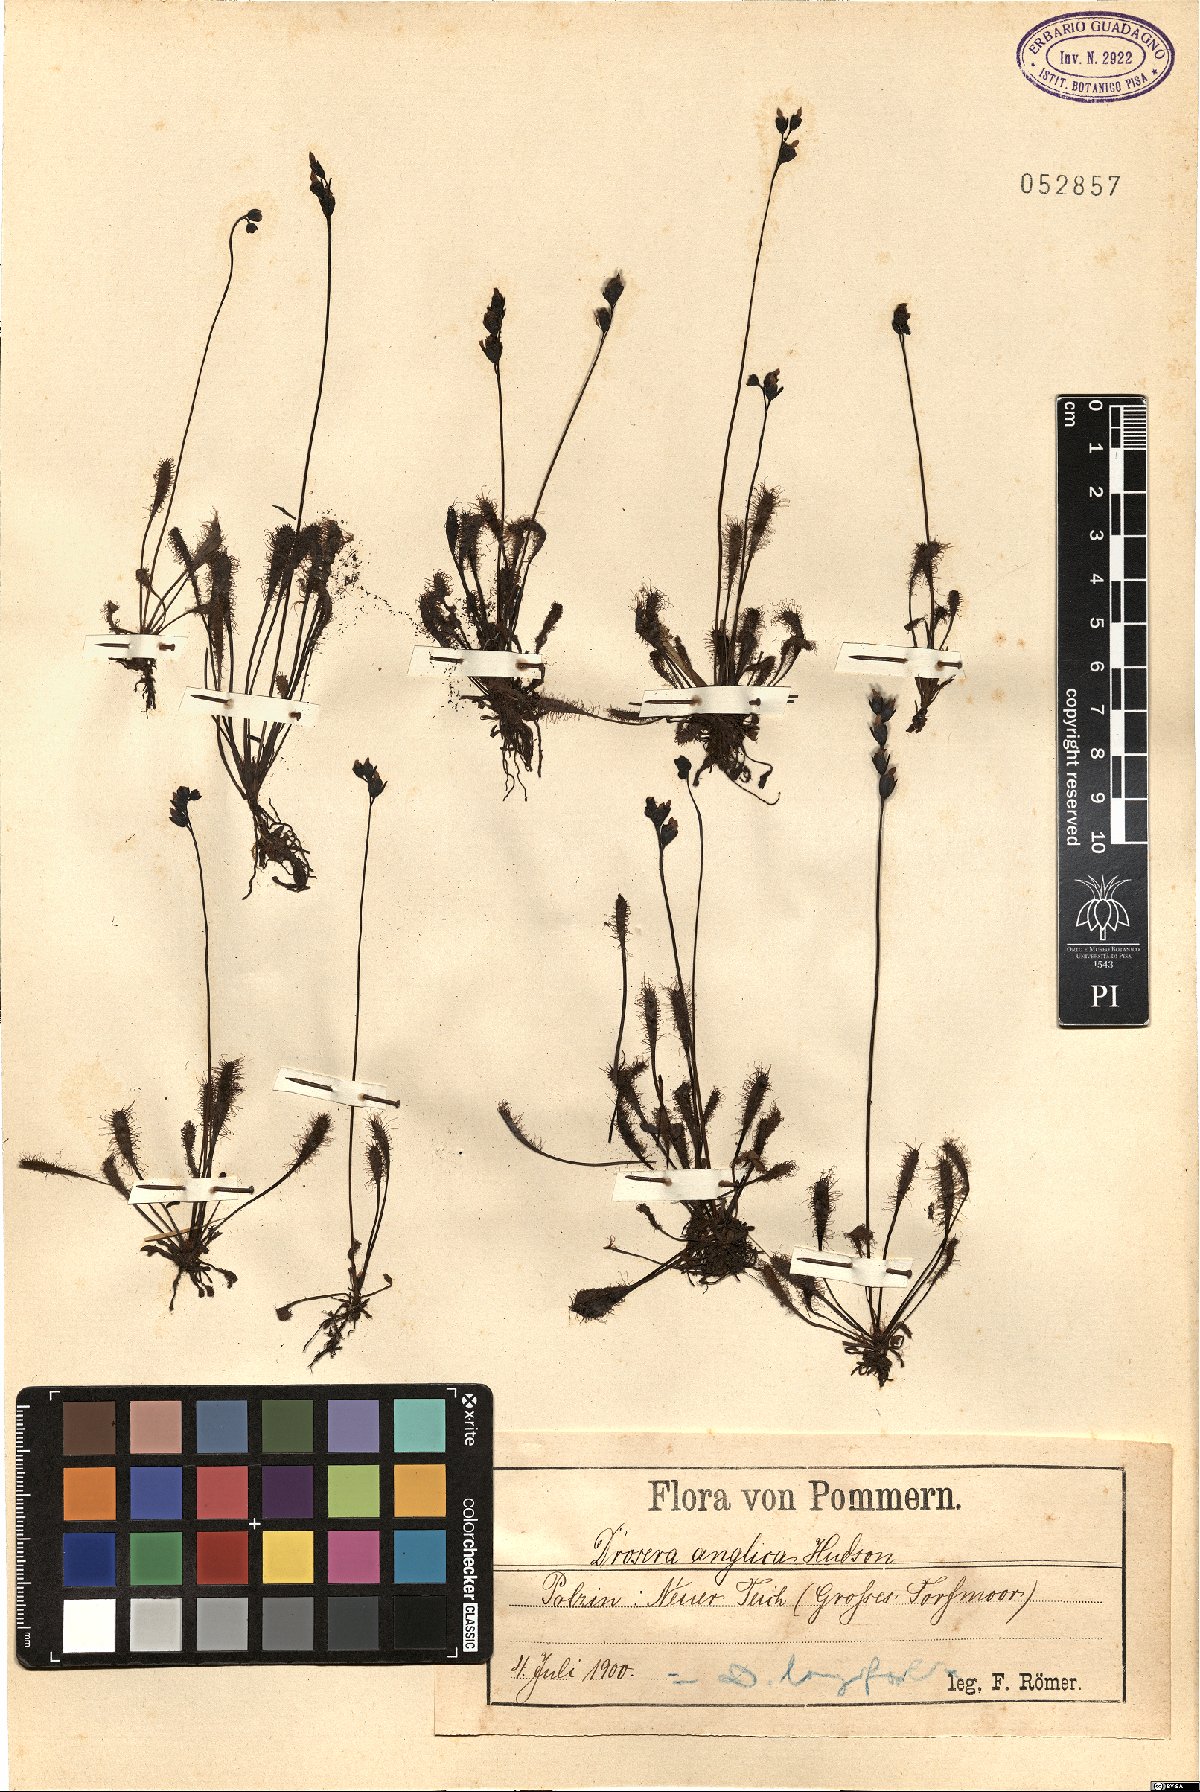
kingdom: Plantae
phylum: Tracheophyta
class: Magnoliopsida
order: Caryophyllales
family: Droseraceae
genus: Drosera
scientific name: Drosera anglica
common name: Great sundew
